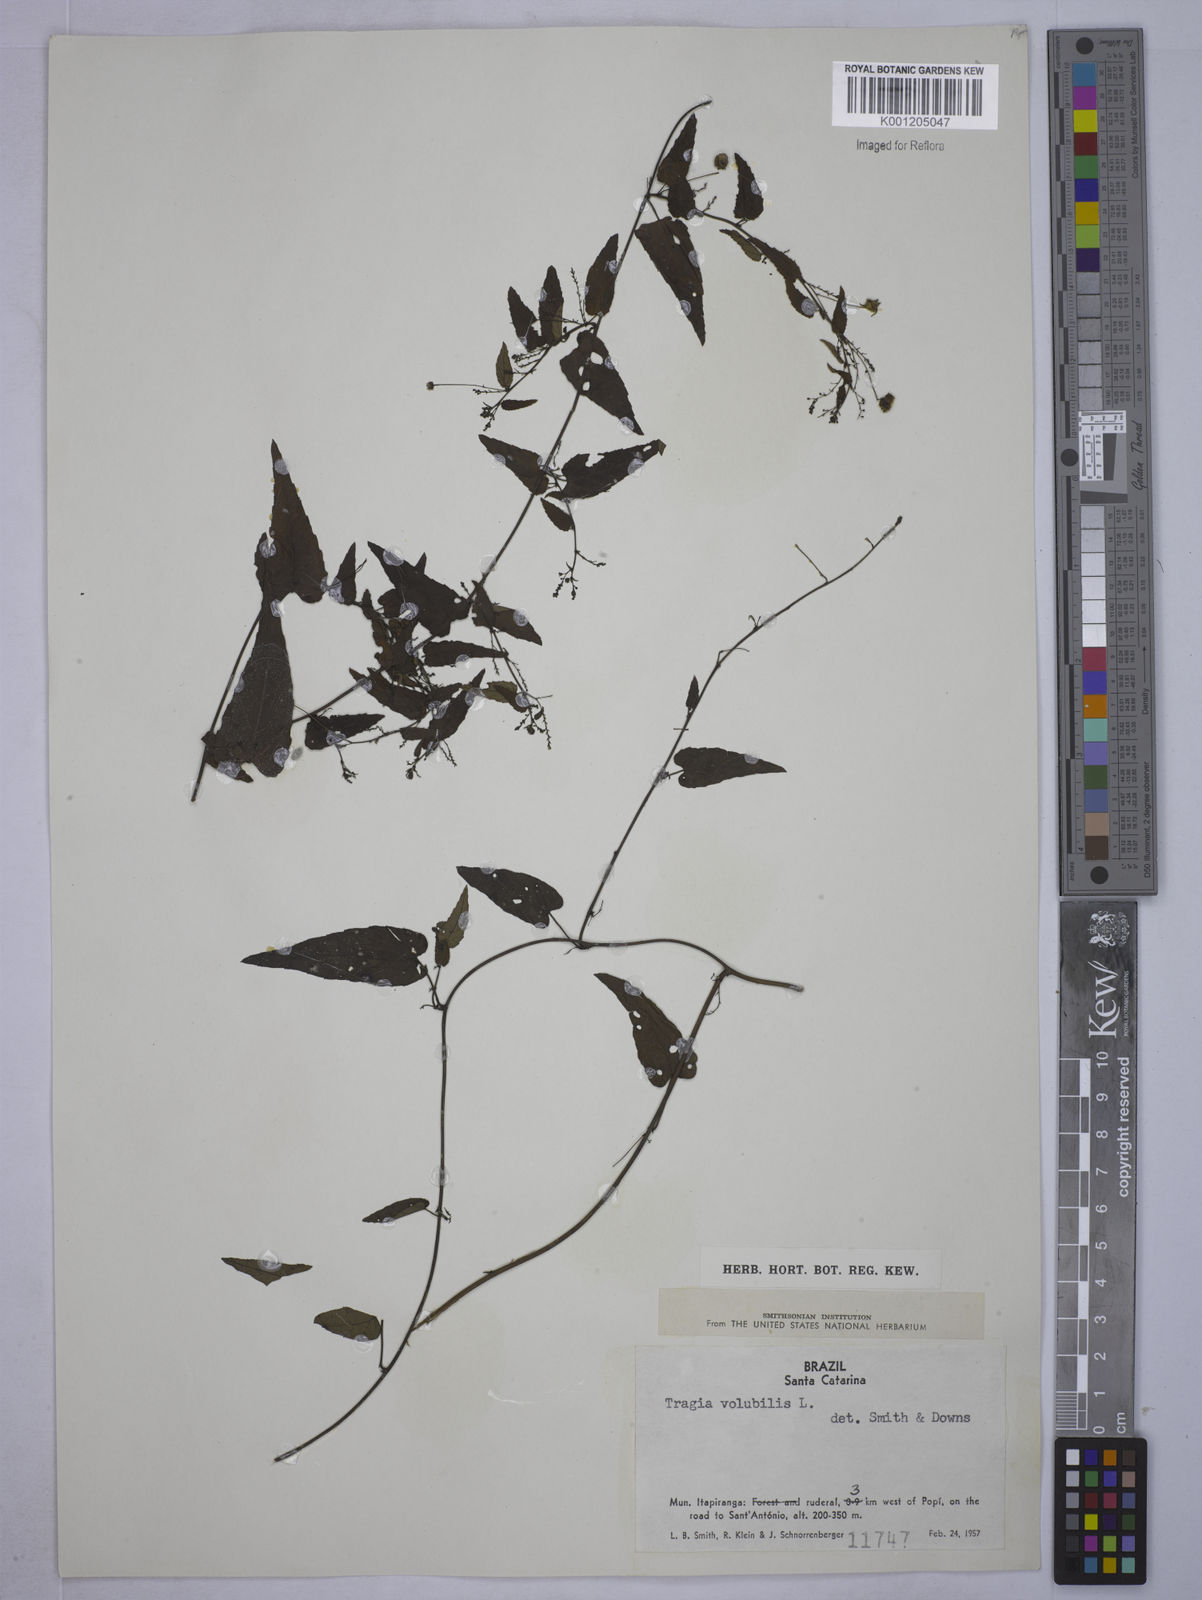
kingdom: Plantae
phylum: Tracheophyta
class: Magnoliopsida
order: Malpighiales
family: Euphorbiaceae
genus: Tragia
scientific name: Tragia volubilis
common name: Twining cow-itch
